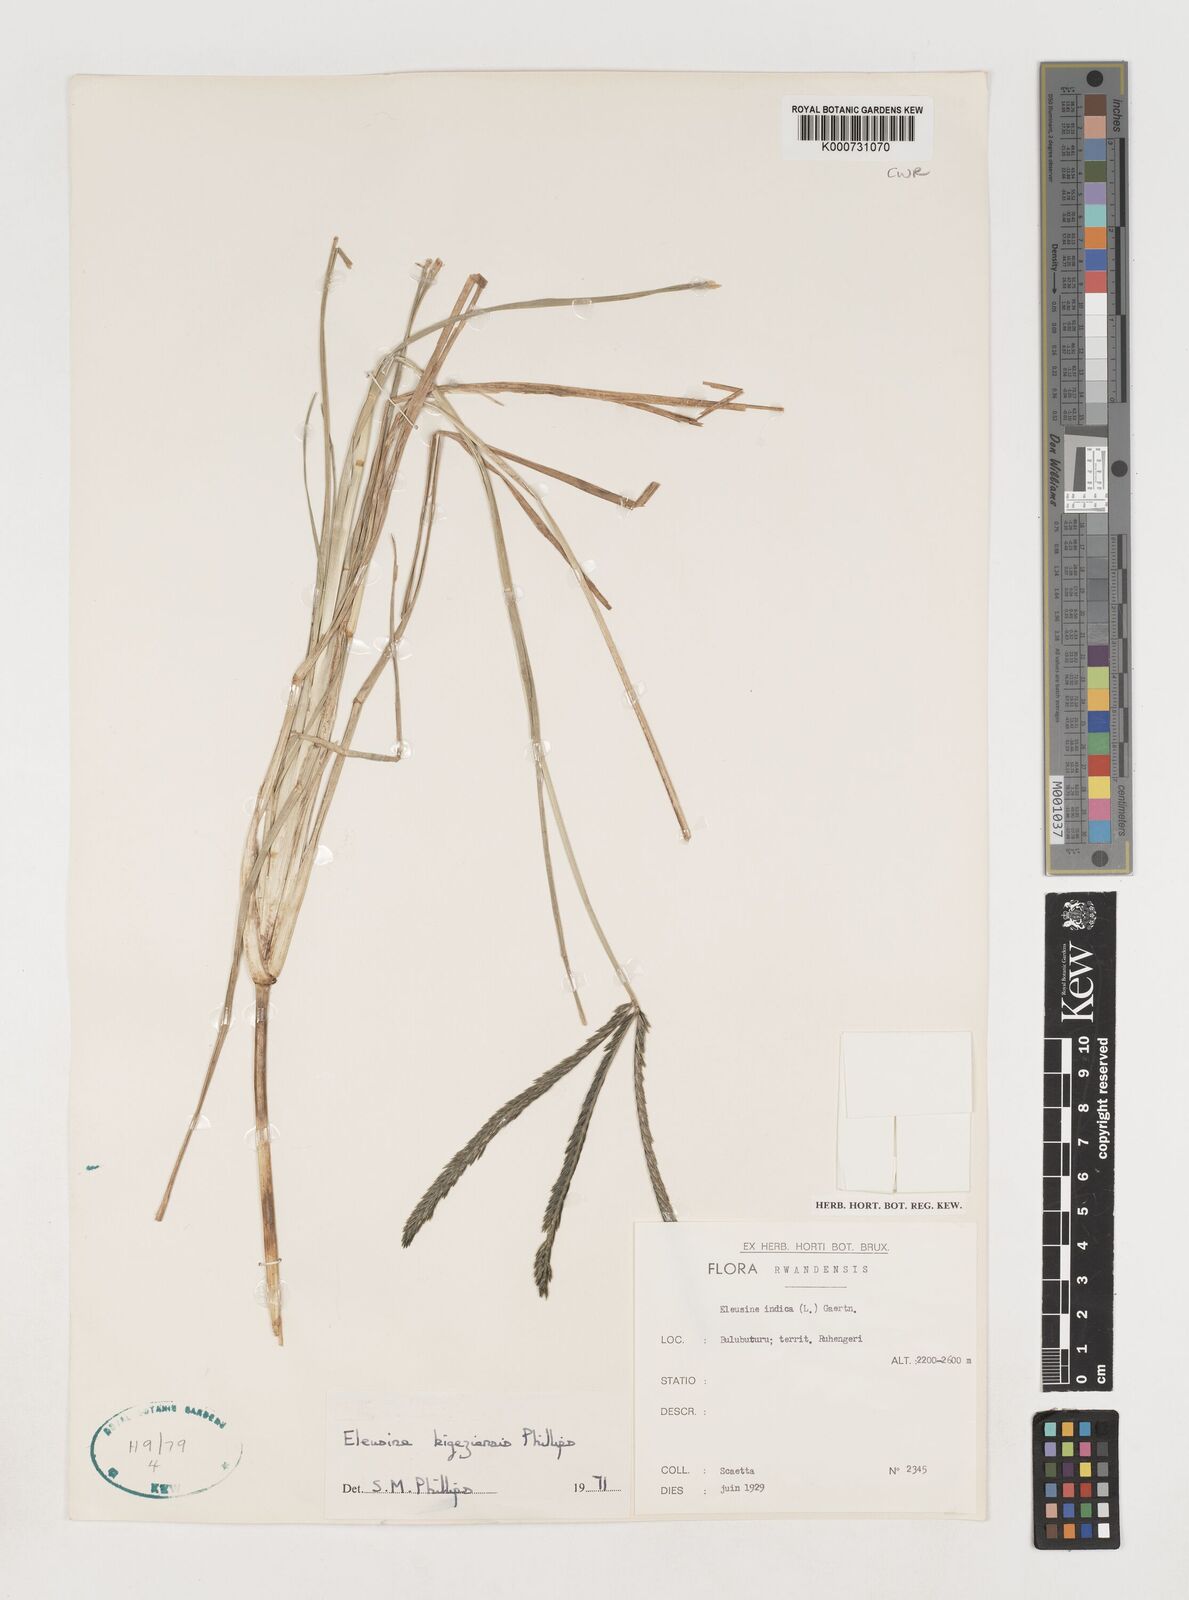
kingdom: Plantae
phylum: Tracheophyta
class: Liliopsida
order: Poales
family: Poaceae
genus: Eleusine
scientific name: Eleusine kigeziensis
